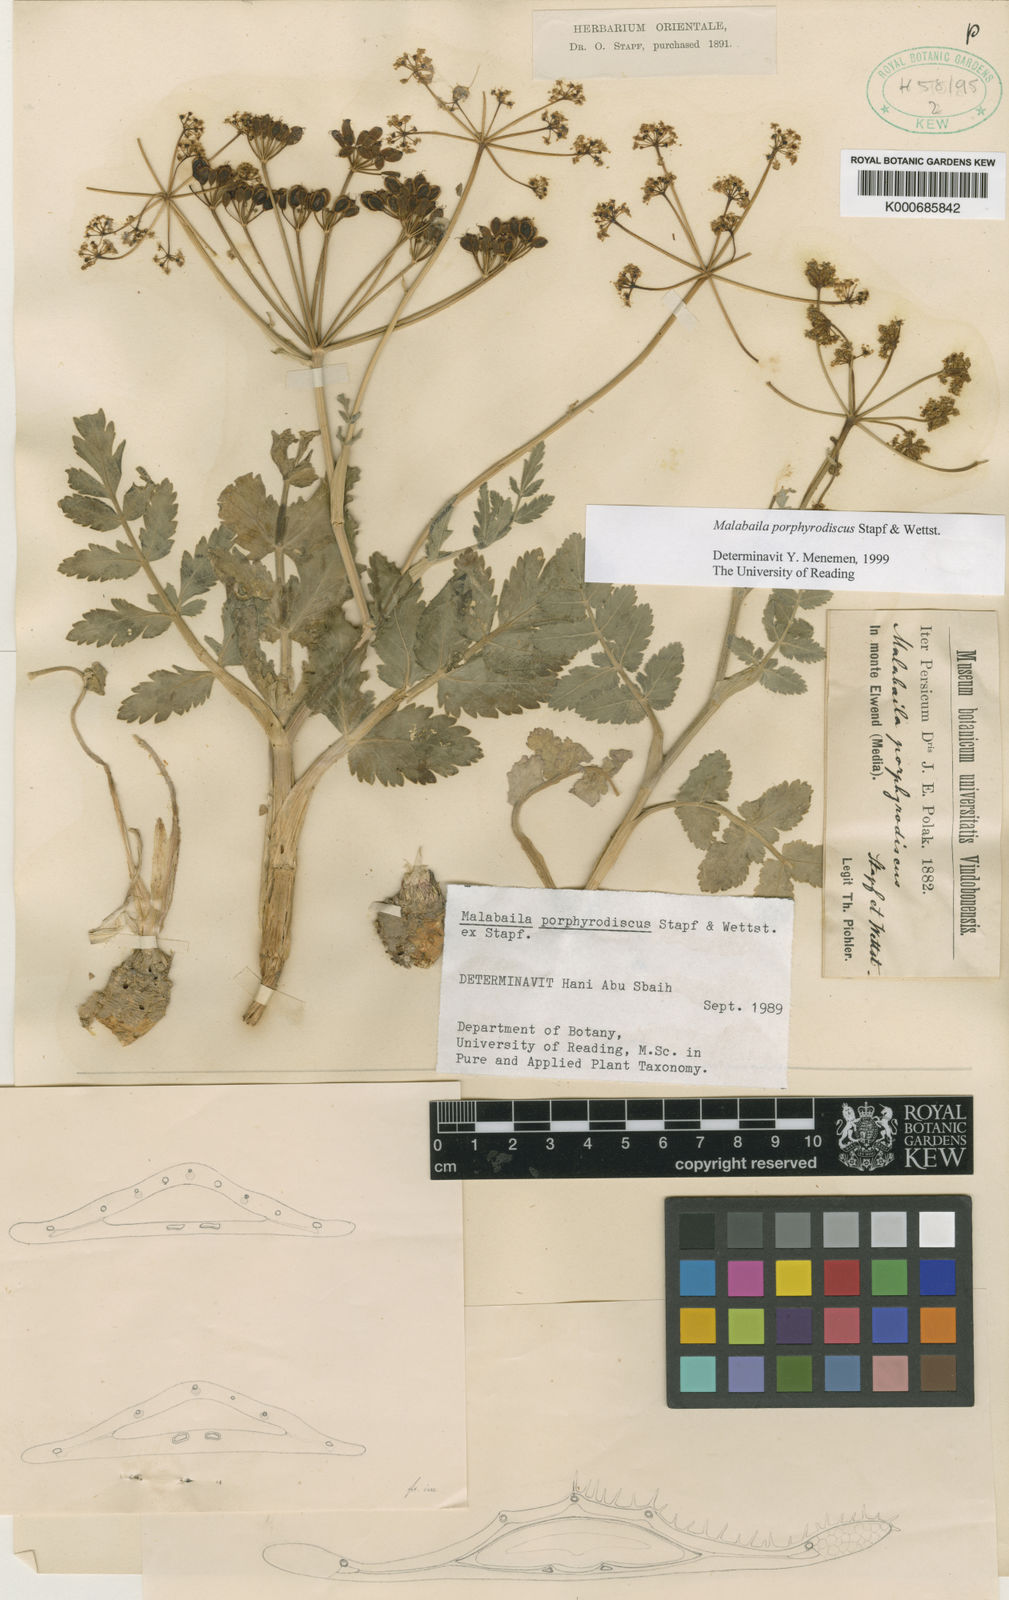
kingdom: Plantae
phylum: Tracheophyta
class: Magnoliopsida
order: Apiales
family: Apiaceae
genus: Pastinaca
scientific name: Pastinaca
